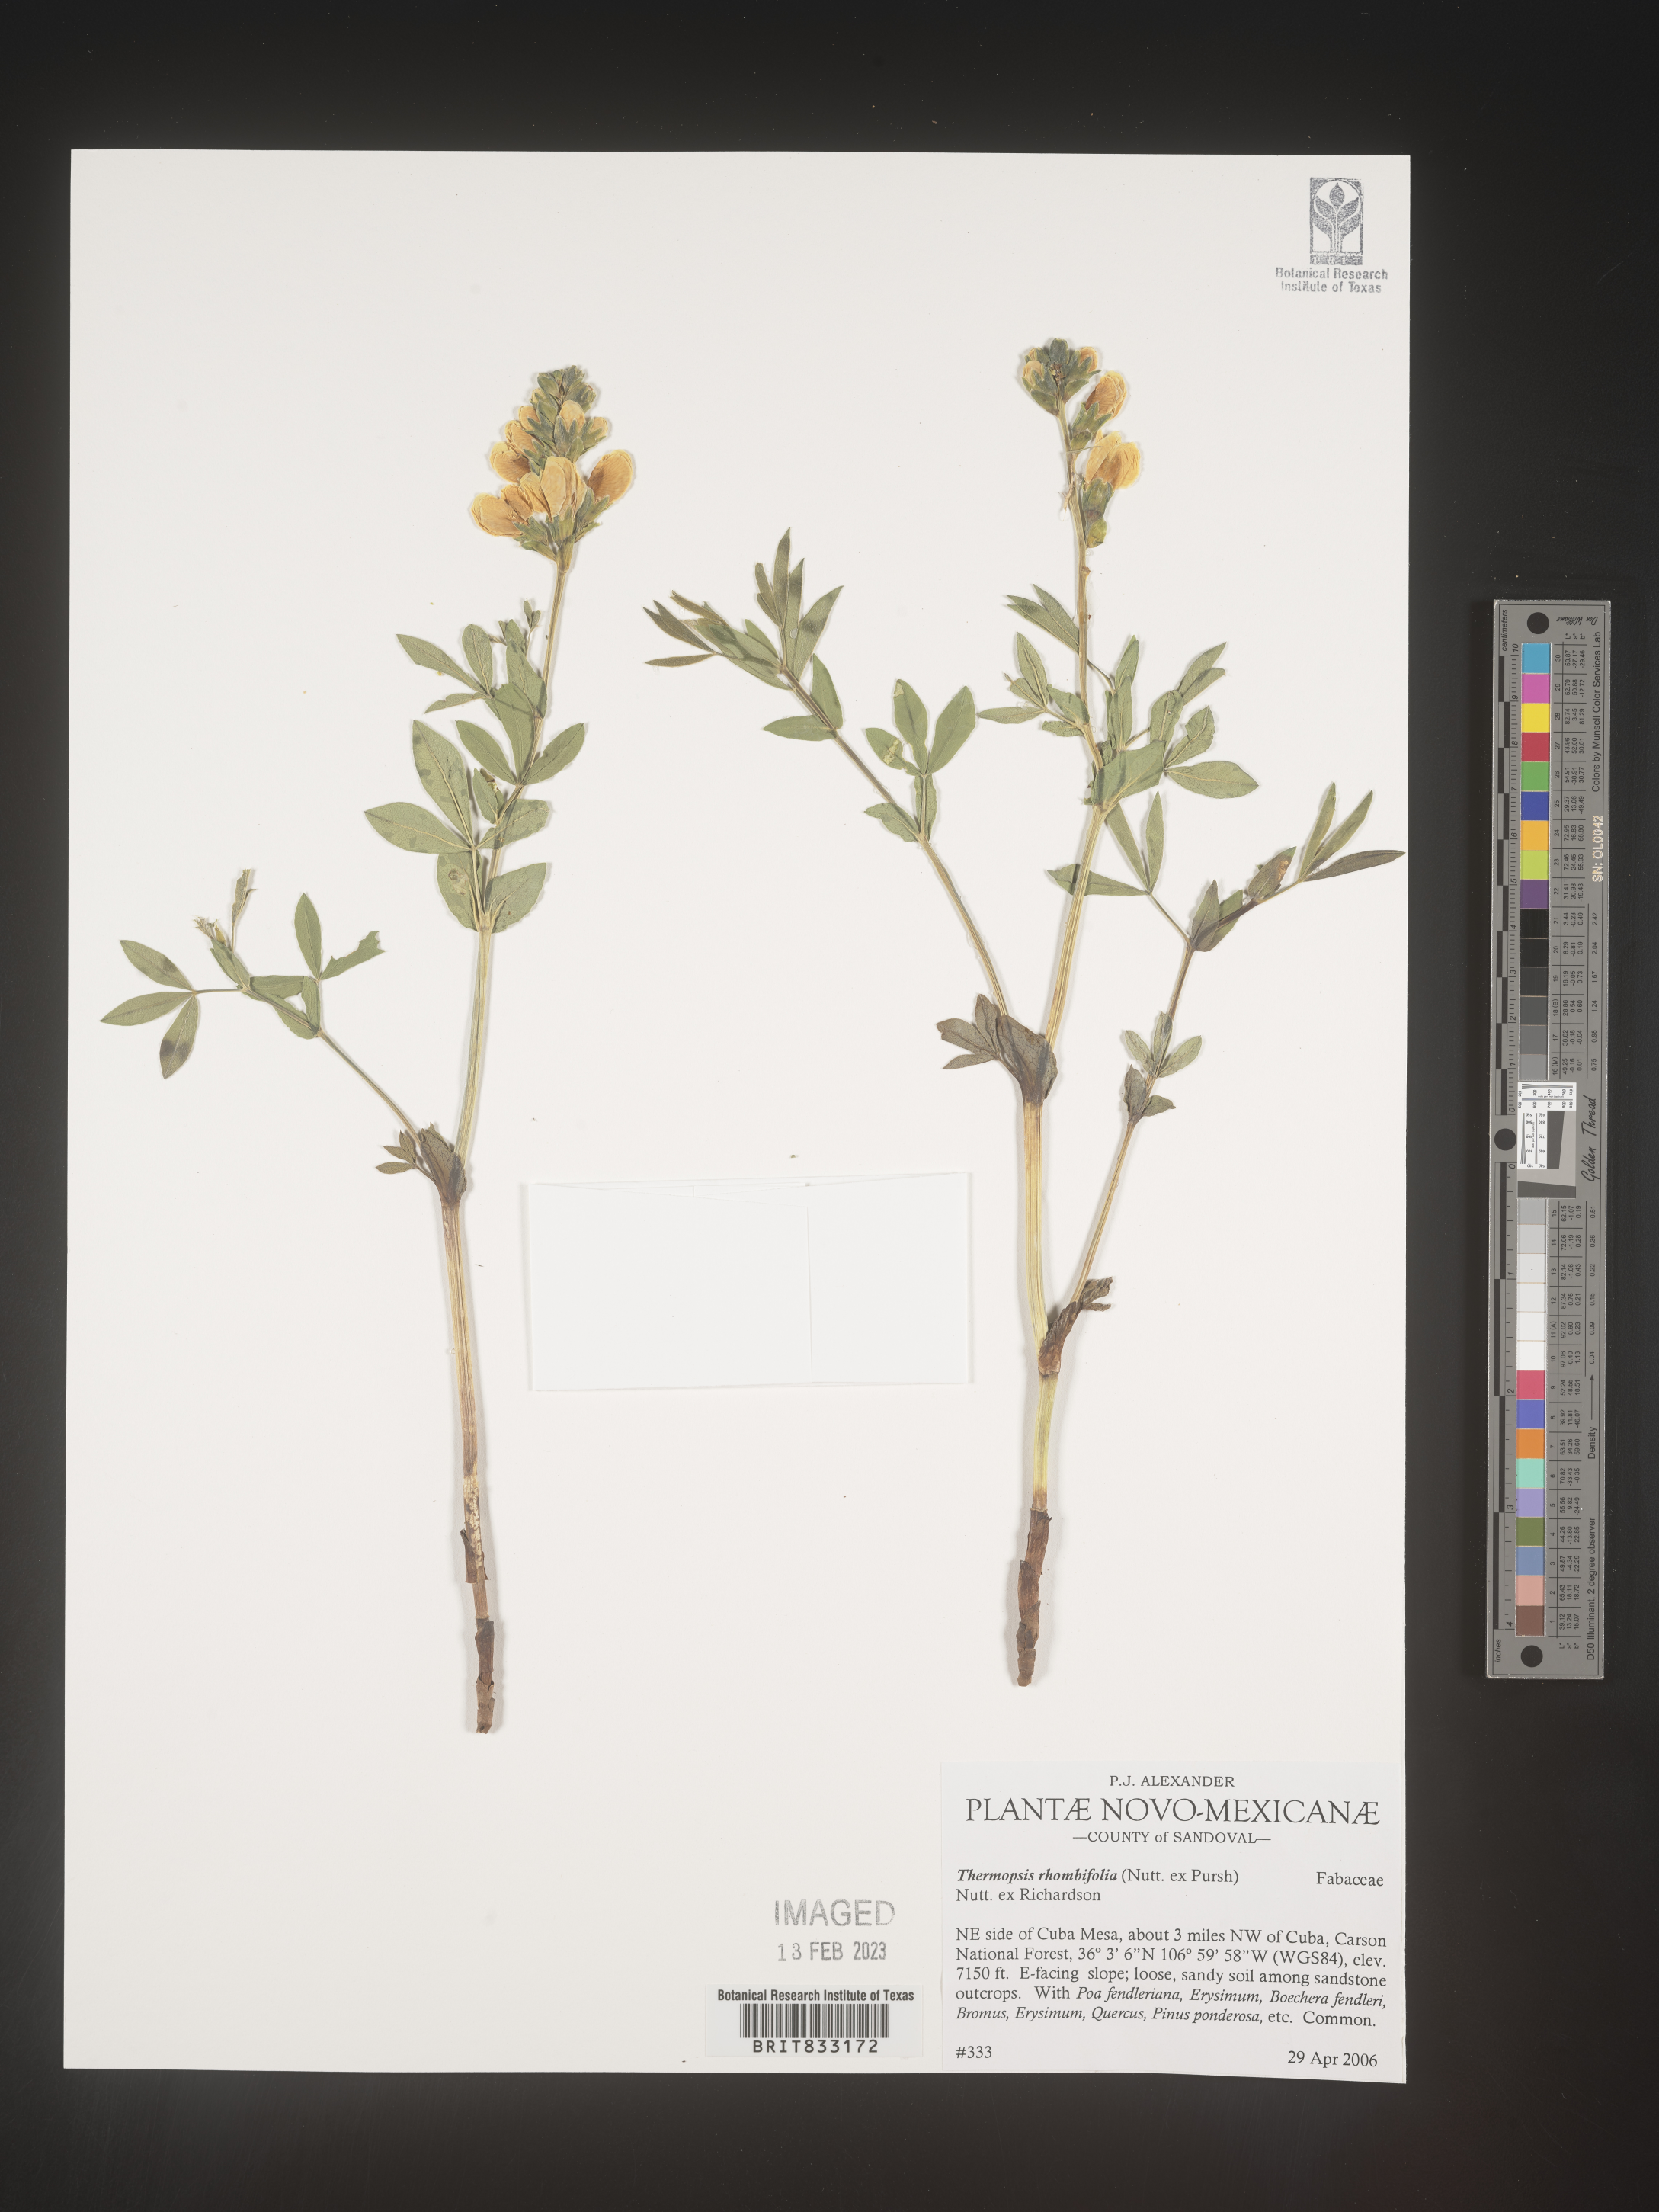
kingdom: Plantae
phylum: Tracheophyta
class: Magnoliopsida
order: Fabales
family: Fabaceae
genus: Thermopsis
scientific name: Thermopsis rhombifolia
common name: Circle-pod-pea
